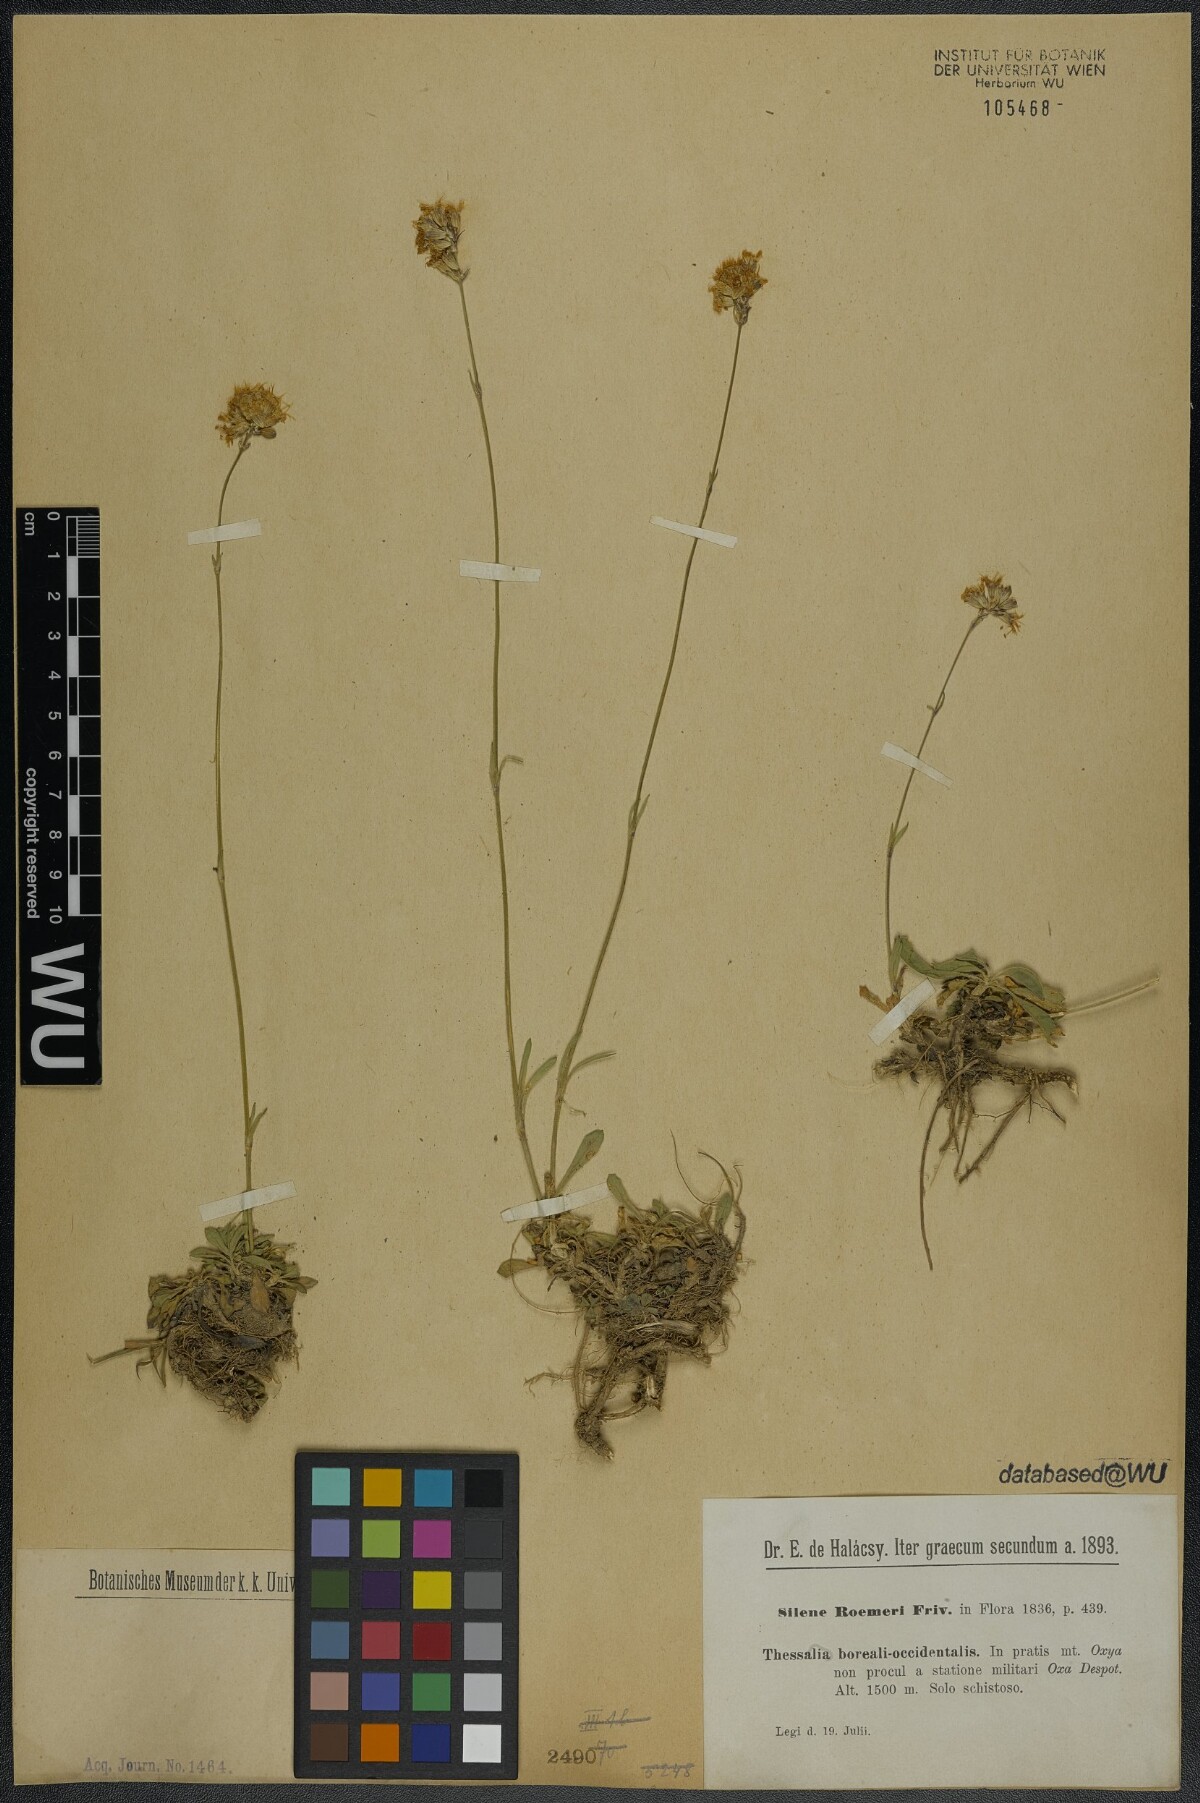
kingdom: Plantae
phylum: Tracheophyta
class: Magnoliopsida
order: Caryophyllales
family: Caryophyllaceae
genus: Silene
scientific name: Silene roemeri
